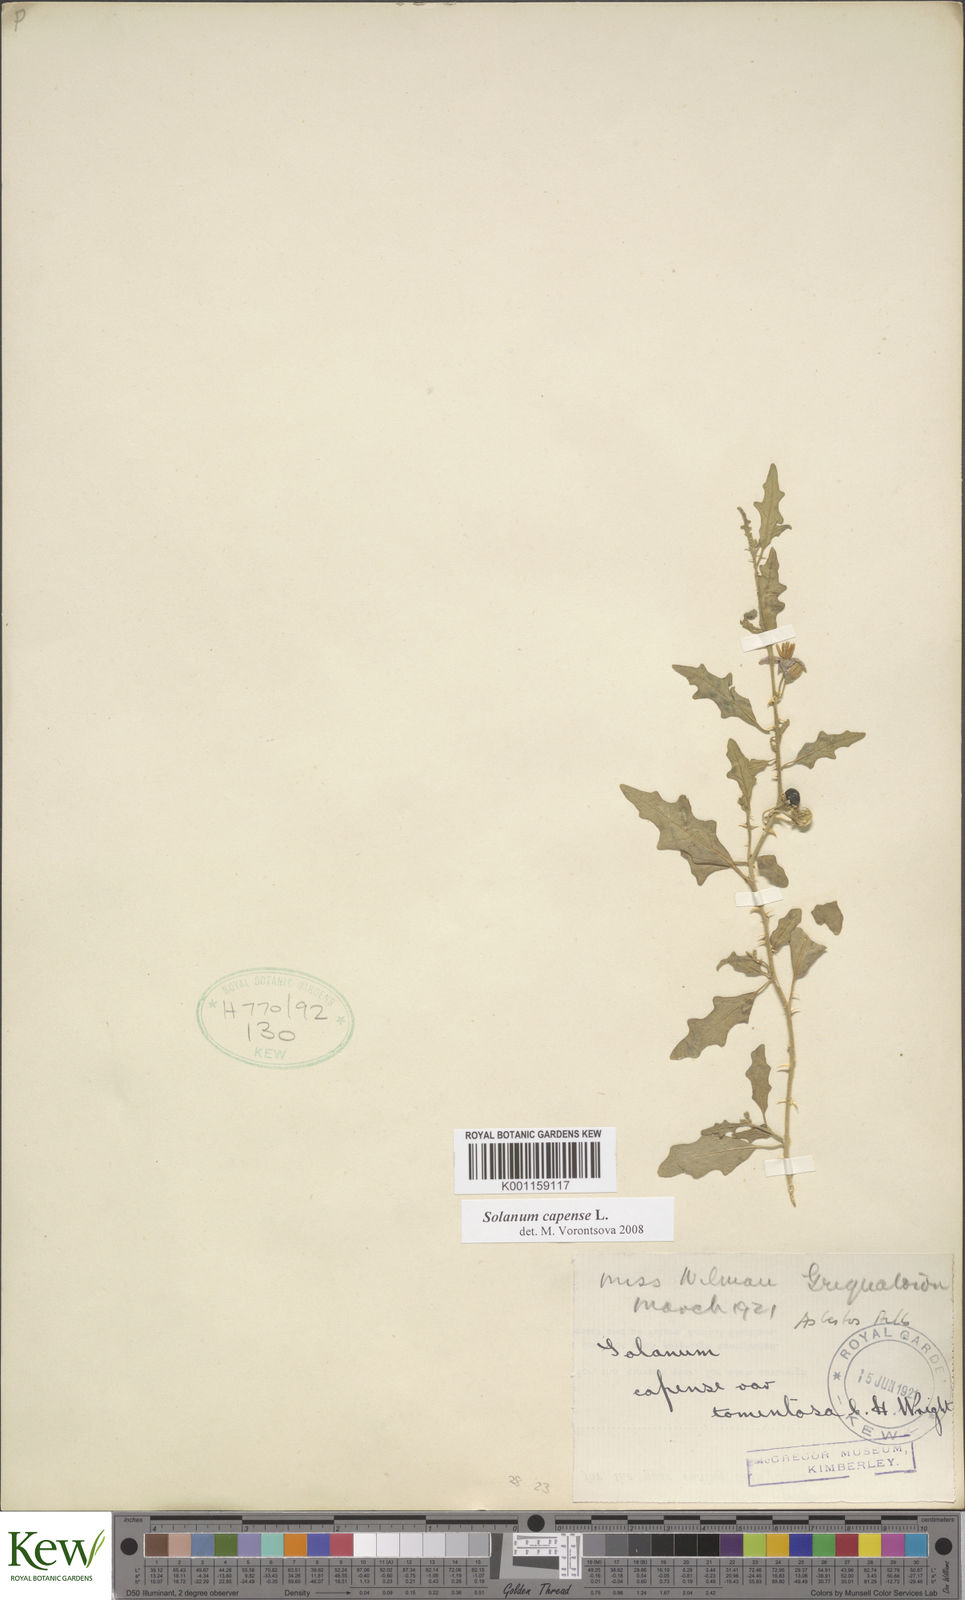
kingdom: Plantae
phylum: Tracheophyta
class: Magnoliopsida
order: Solanales
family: Solanaceae
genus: Solanum
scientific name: Solanum capense
